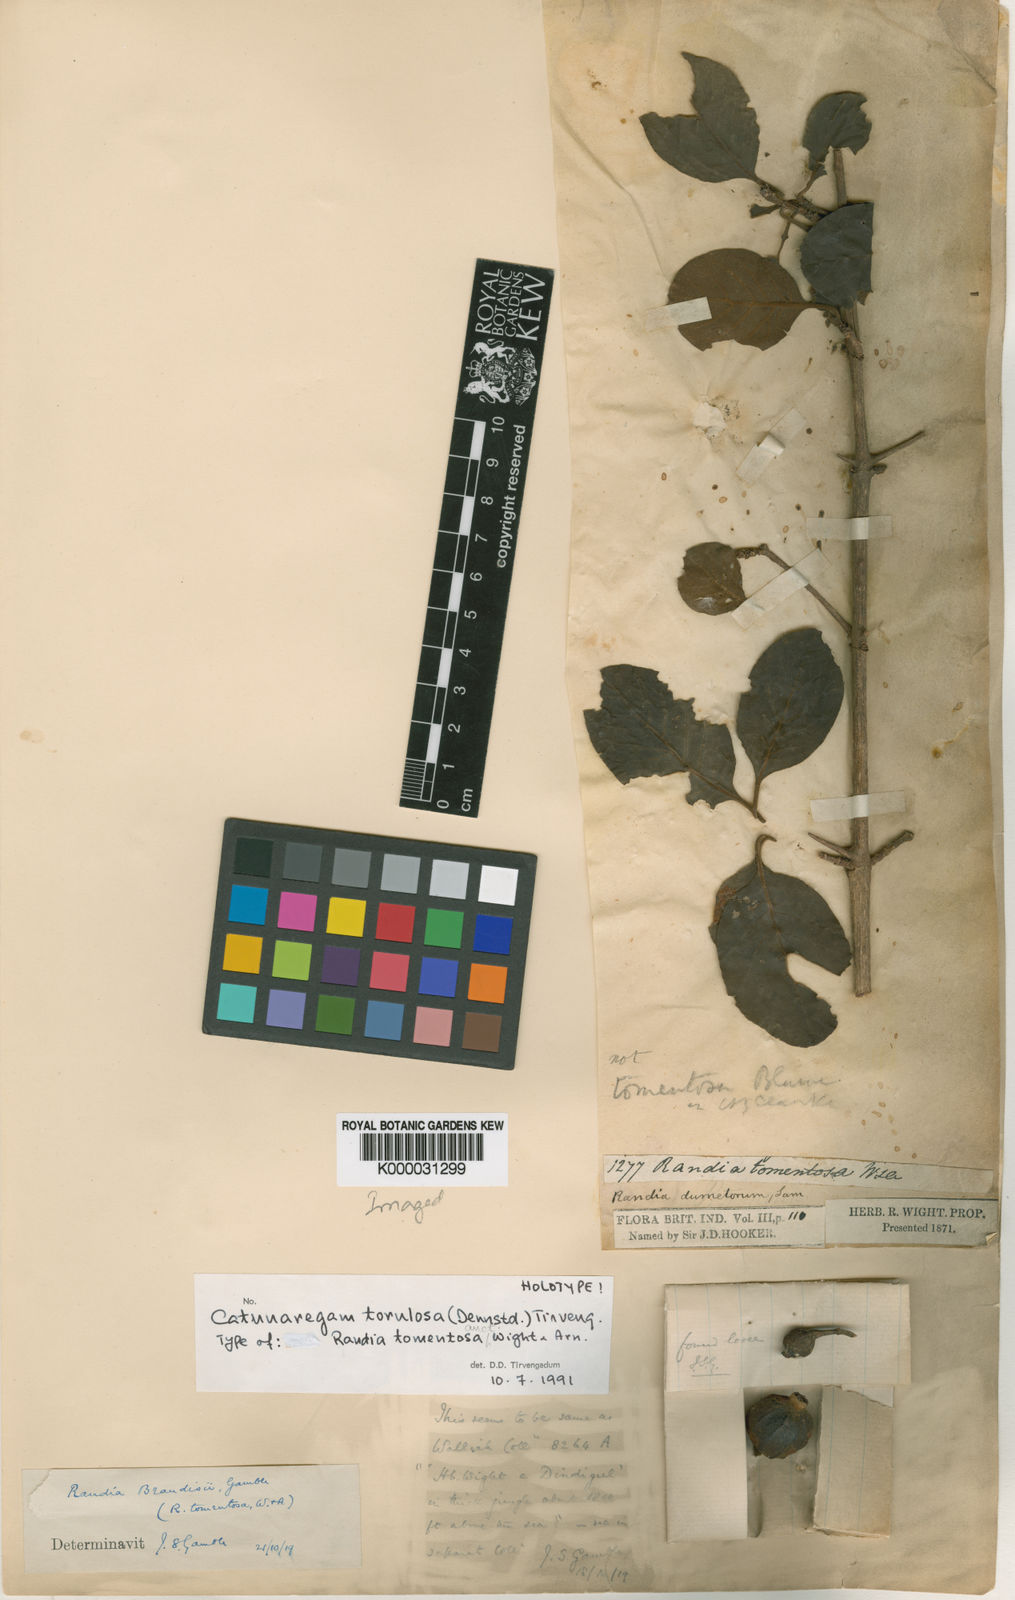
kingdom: Plantae
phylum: Tracheophyta
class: Magnoliopsida
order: Gentianales
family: Rubiaceae
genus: Catunaregam
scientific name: Catunaregam
